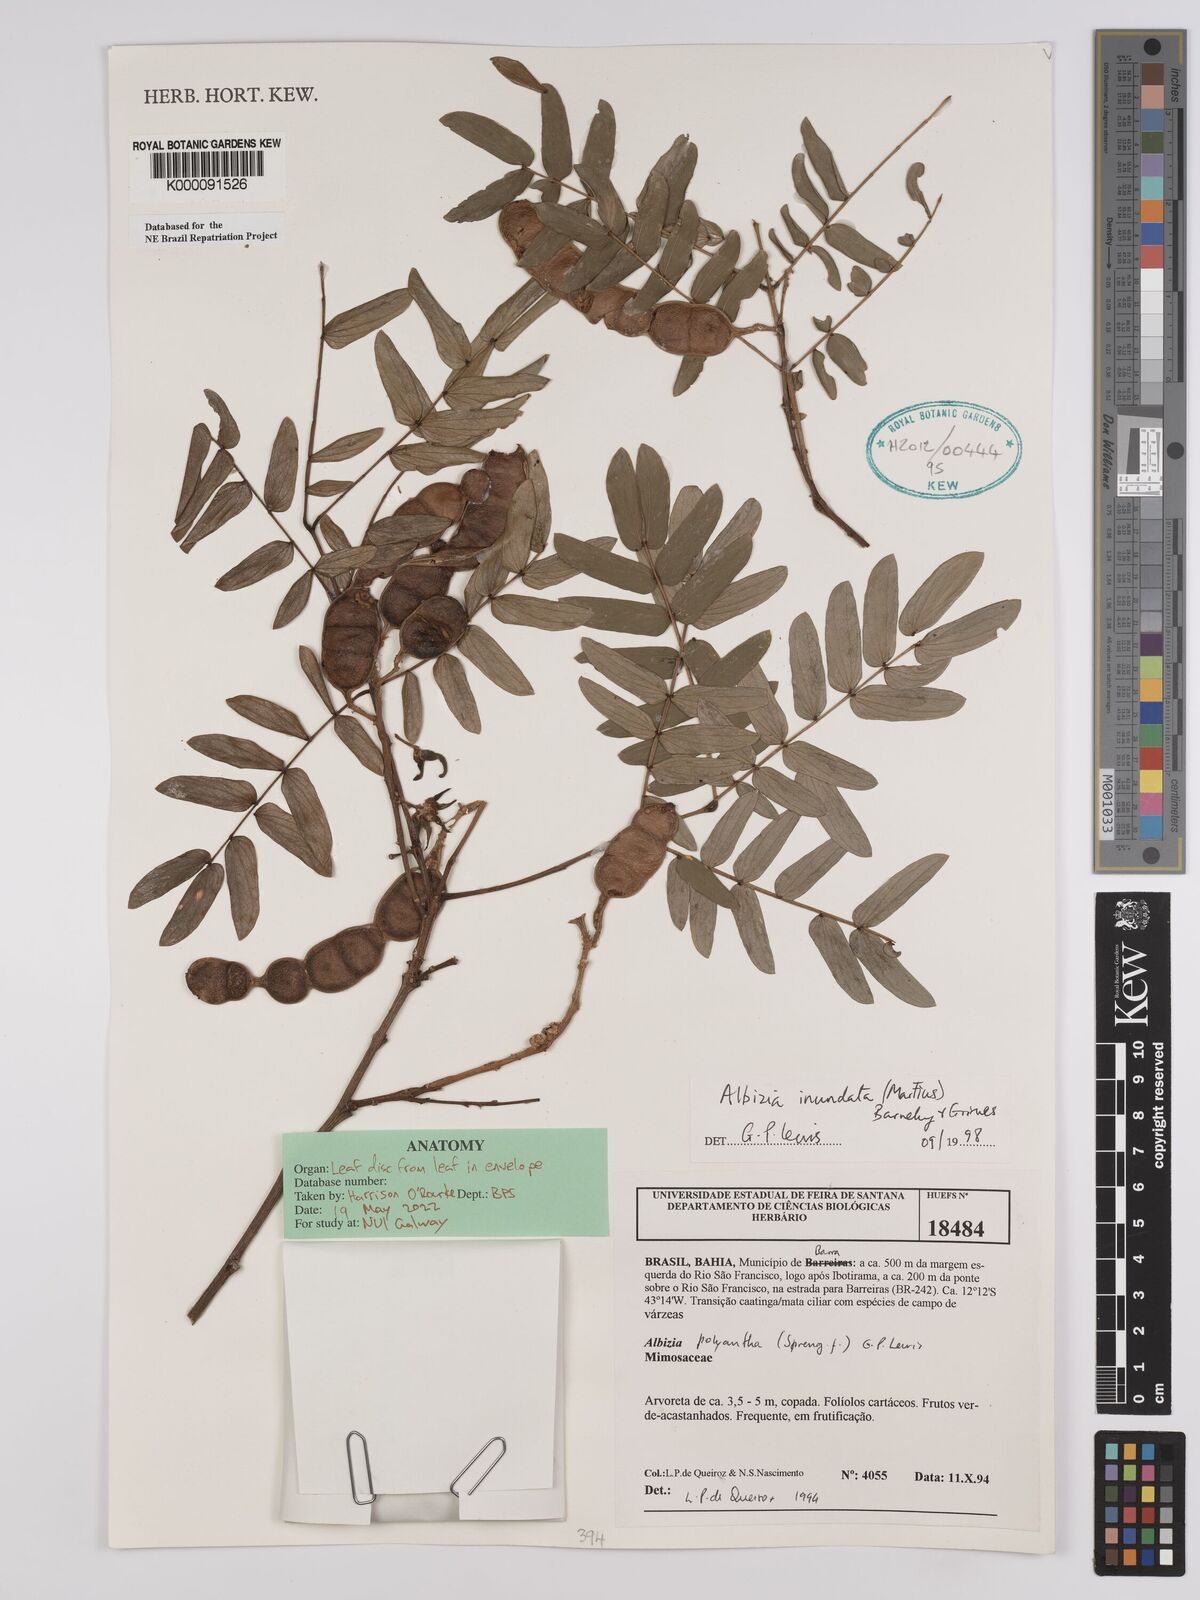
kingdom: Plantae
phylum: Tracheophyta
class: Magnoliopsida
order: Fabales
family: Fabaceae
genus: Albizia
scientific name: Albizia inundata
